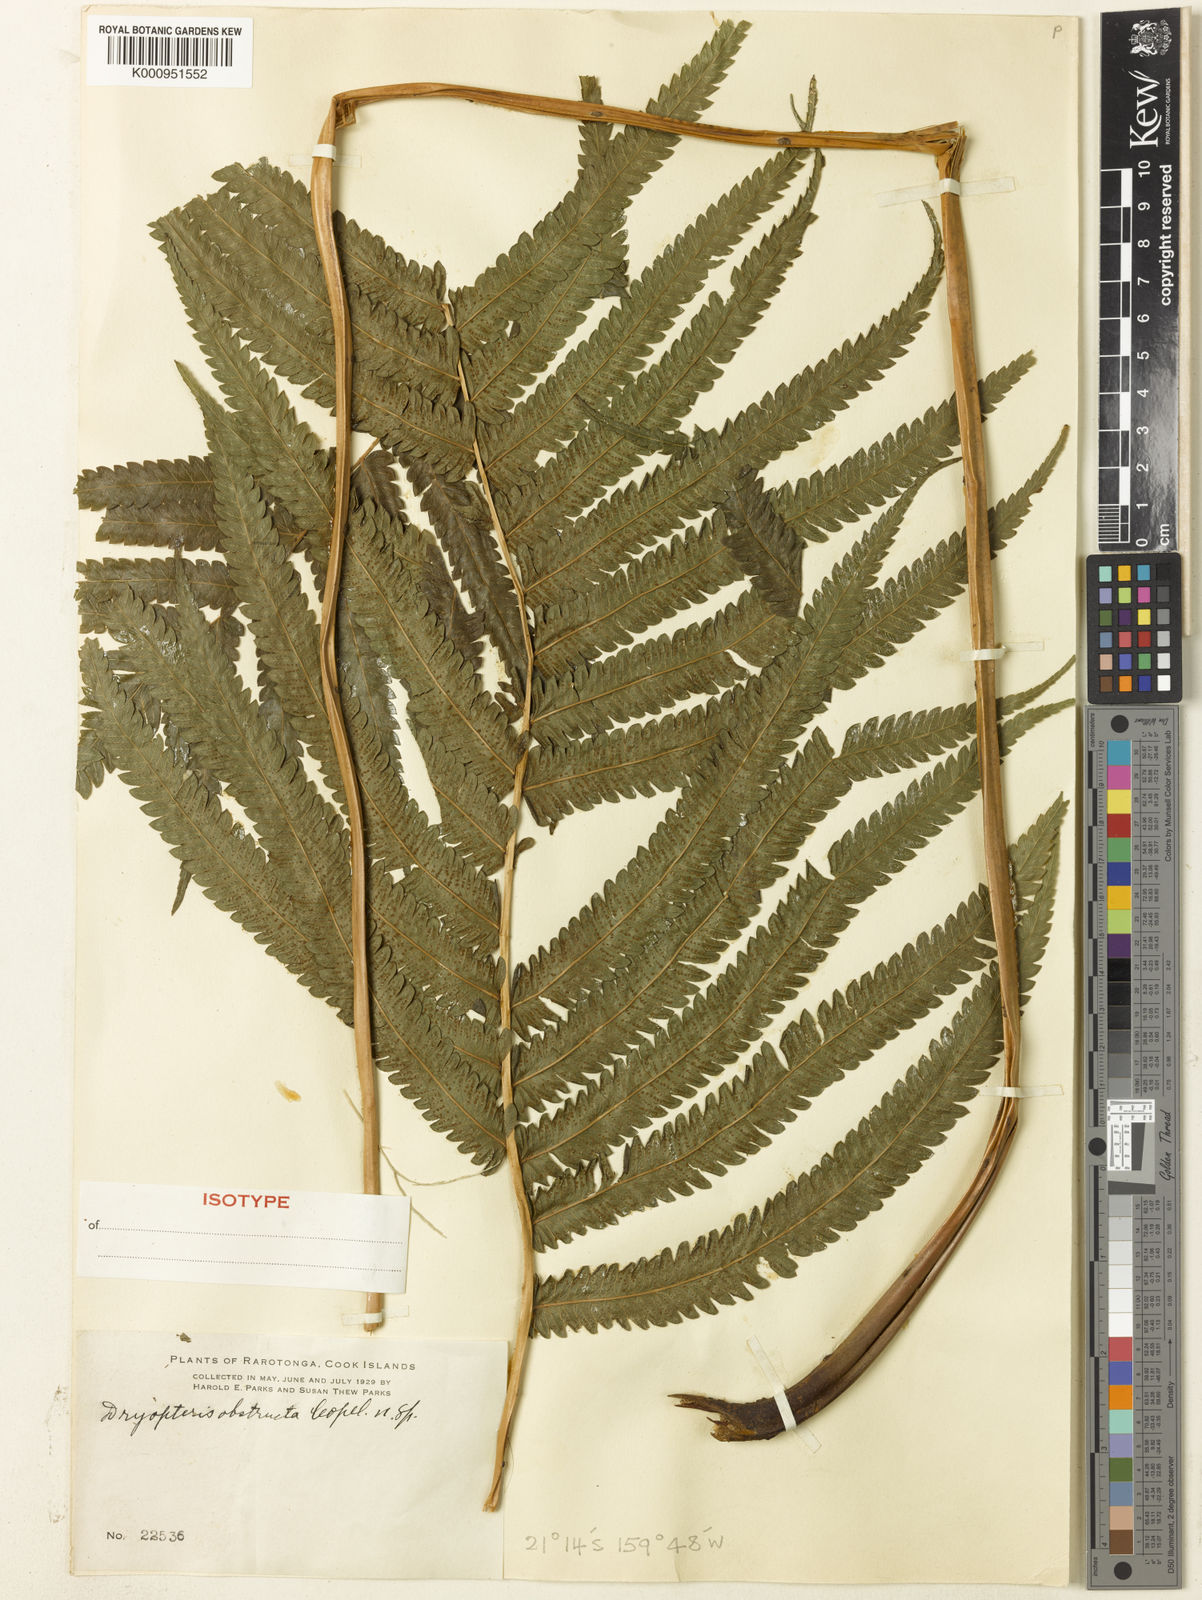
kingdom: Plantae
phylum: Tracheophyta
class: Polypodiopsida
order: Polypodiales
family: Thelypteridaceae
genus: Pneumatopteris
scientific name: Pneumatopteris glandulifera
